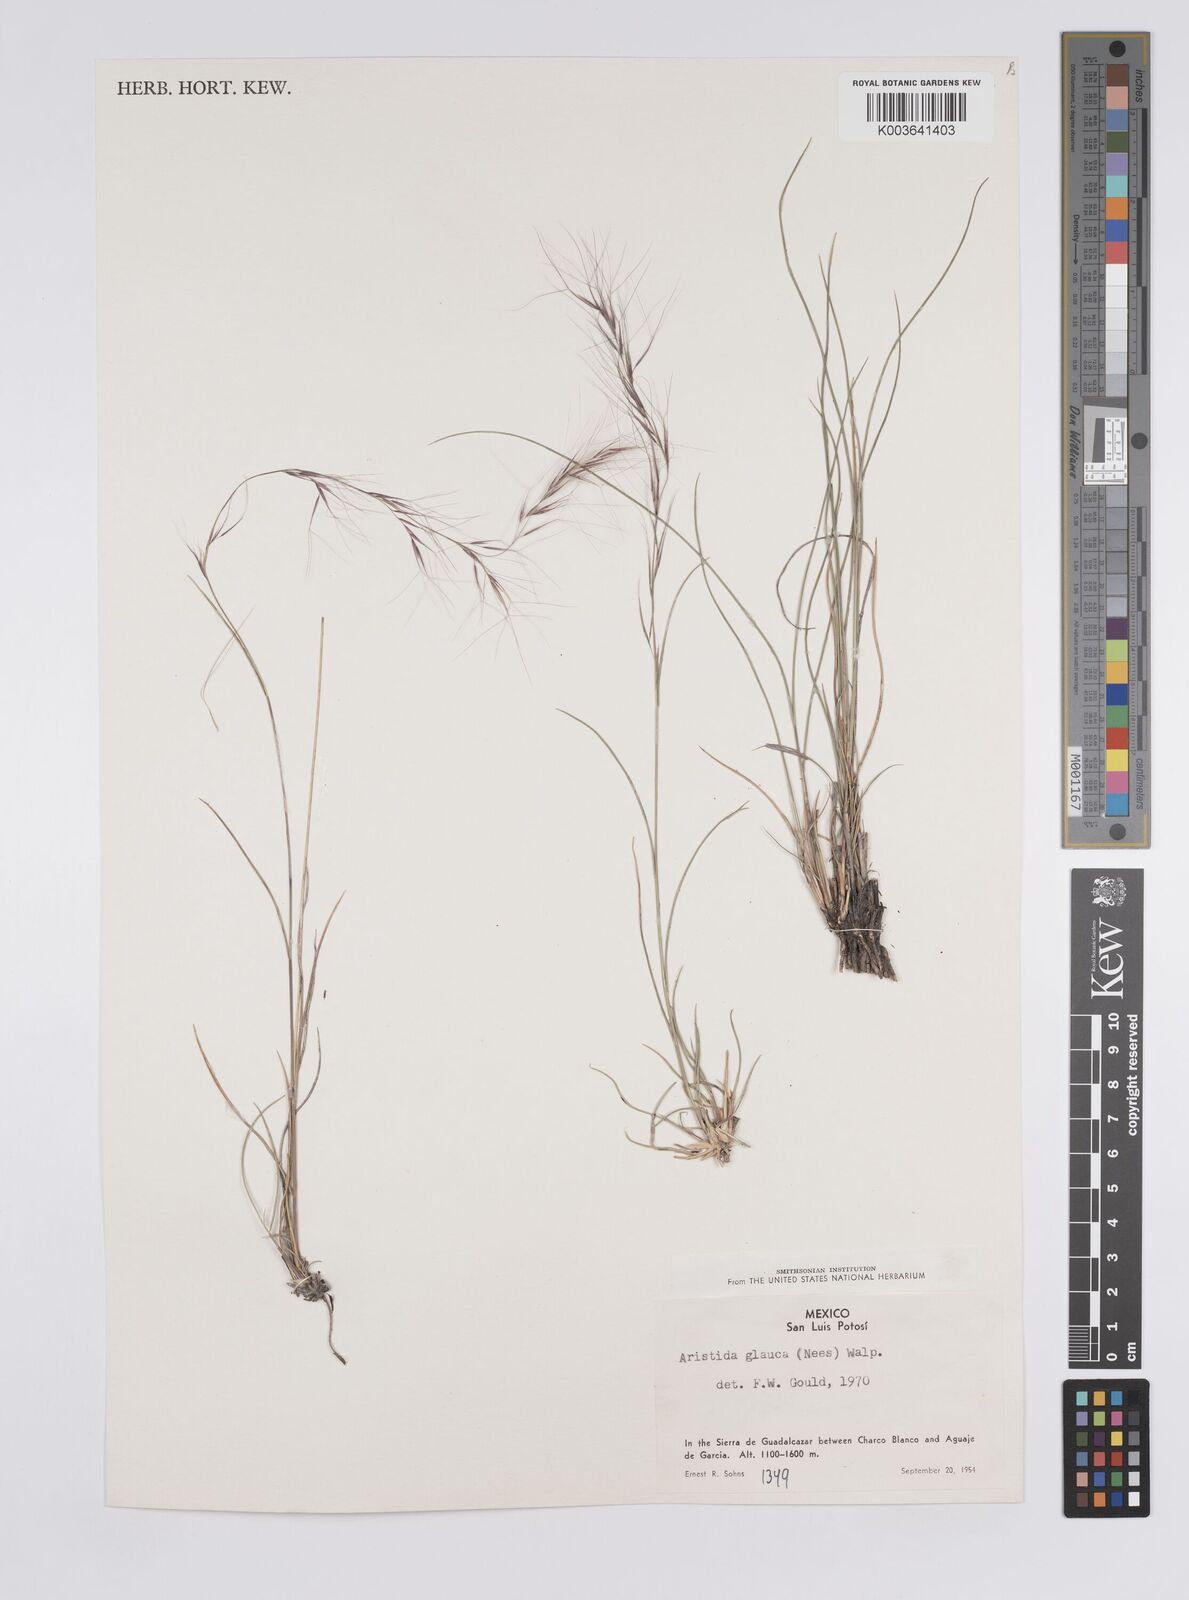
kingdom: Plantae
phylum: Tracheophyta
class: Liliopsida
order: Poales
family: Poaceae
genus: Aristida
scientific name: Aristida purpurea
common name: Purple threeawn
